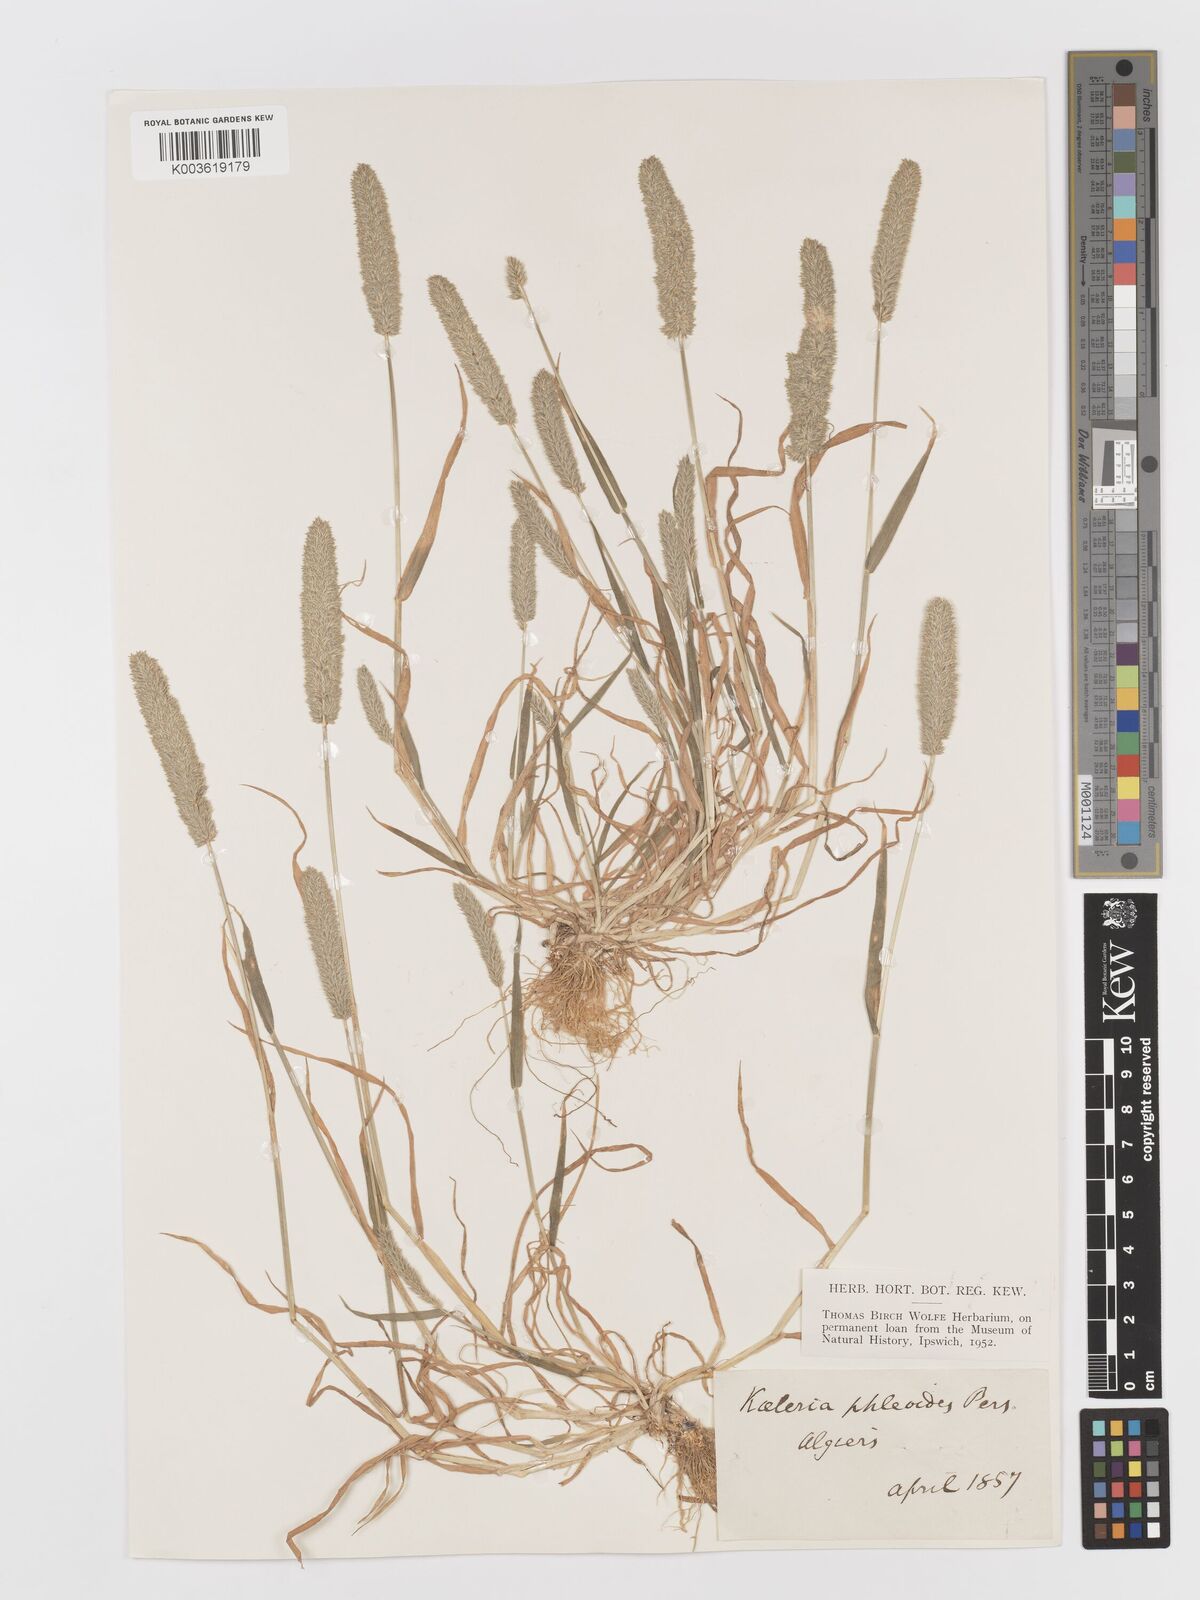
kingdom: Plantae
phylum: Tracheophyta
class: Liliopsida
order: Poales
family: Poaceae
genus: Rostraria
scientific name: Rostraria cristata
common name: Mediterranean hair-grass
